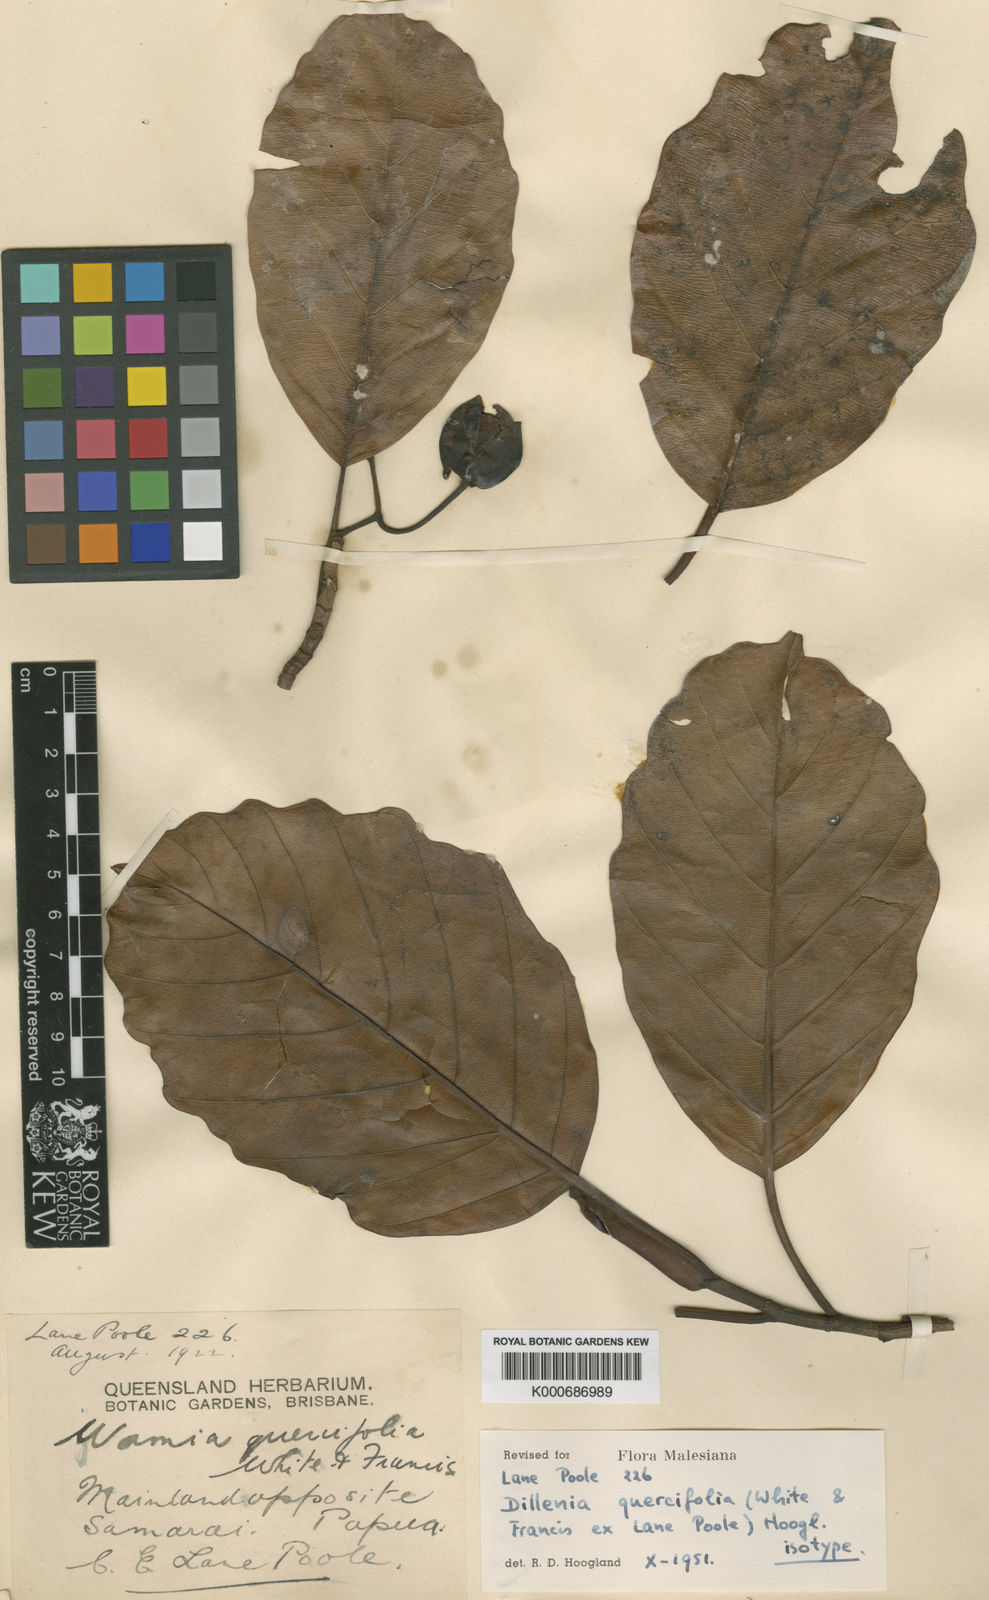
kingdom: Plantae
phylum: Tracheophyta
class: Magnoliopsida
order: Dilleniales
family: Dilleniaceae
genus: Dillenia
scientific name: Dillenia quercifolia
